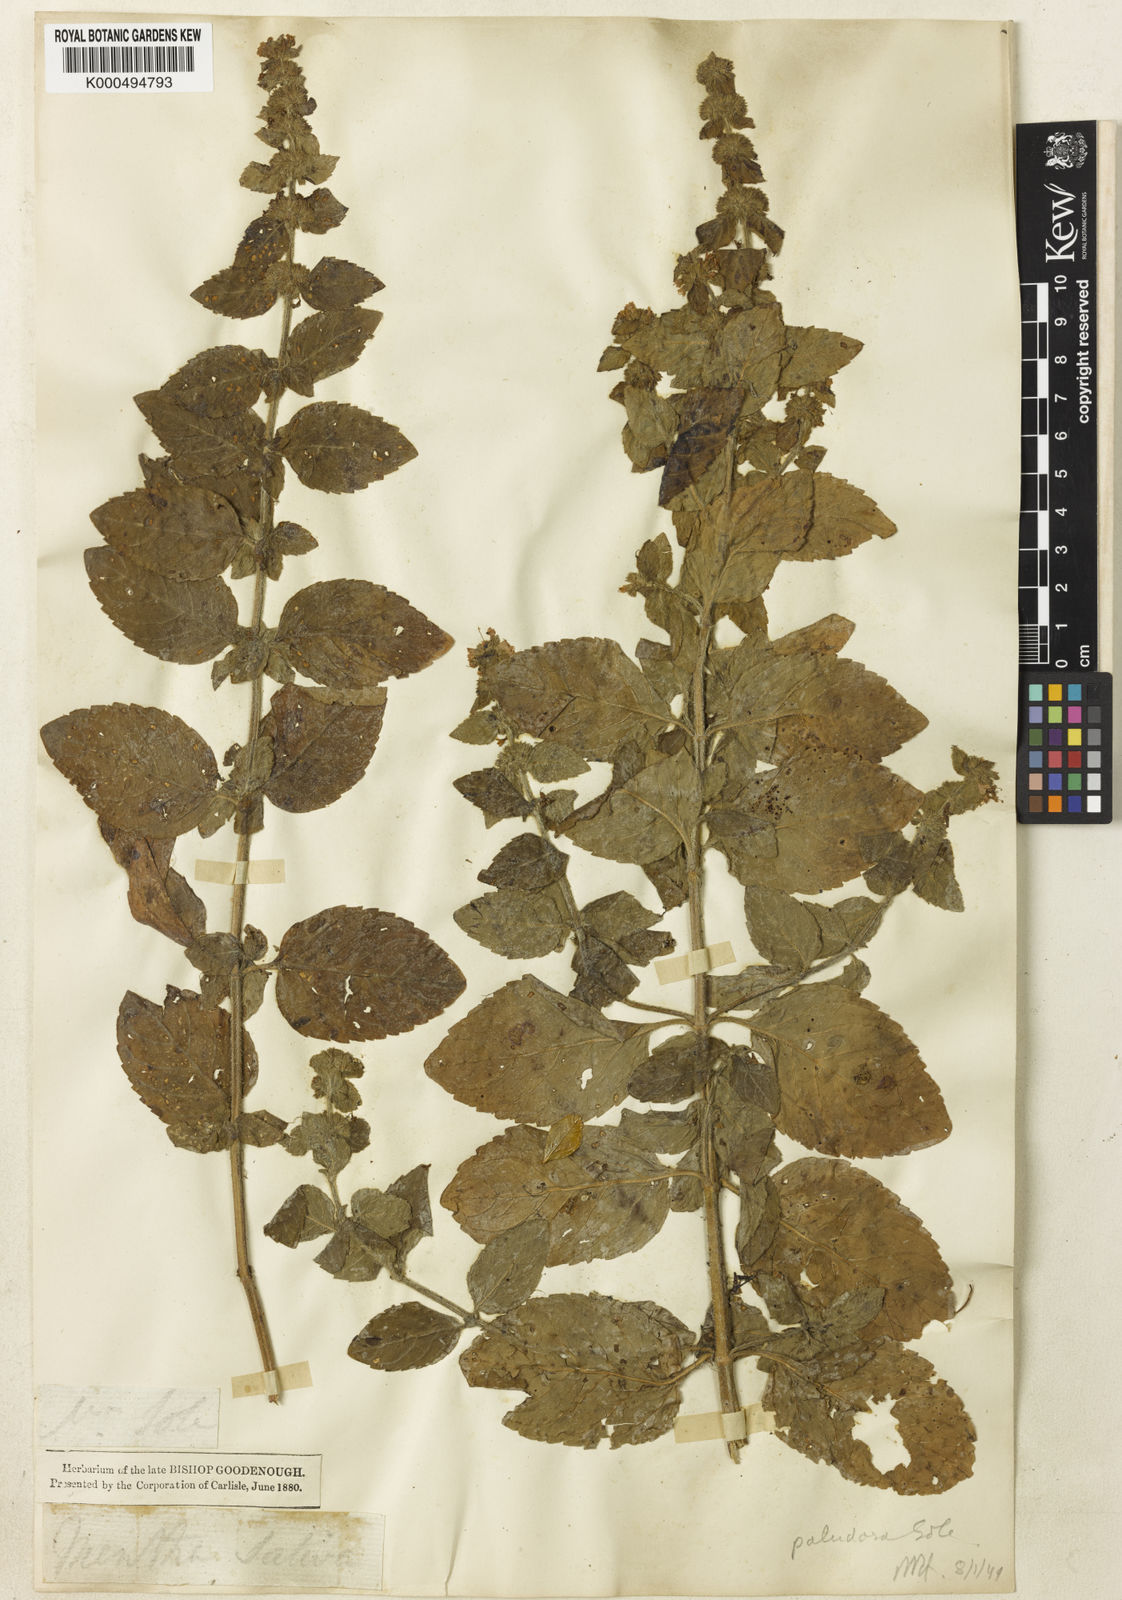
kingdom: Plantae
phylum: Tracheophyta
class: Magnoliopsida
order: Lamiales
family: Lamiaceae
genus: Mentha
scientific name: Mentha verticillata
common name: Mint
